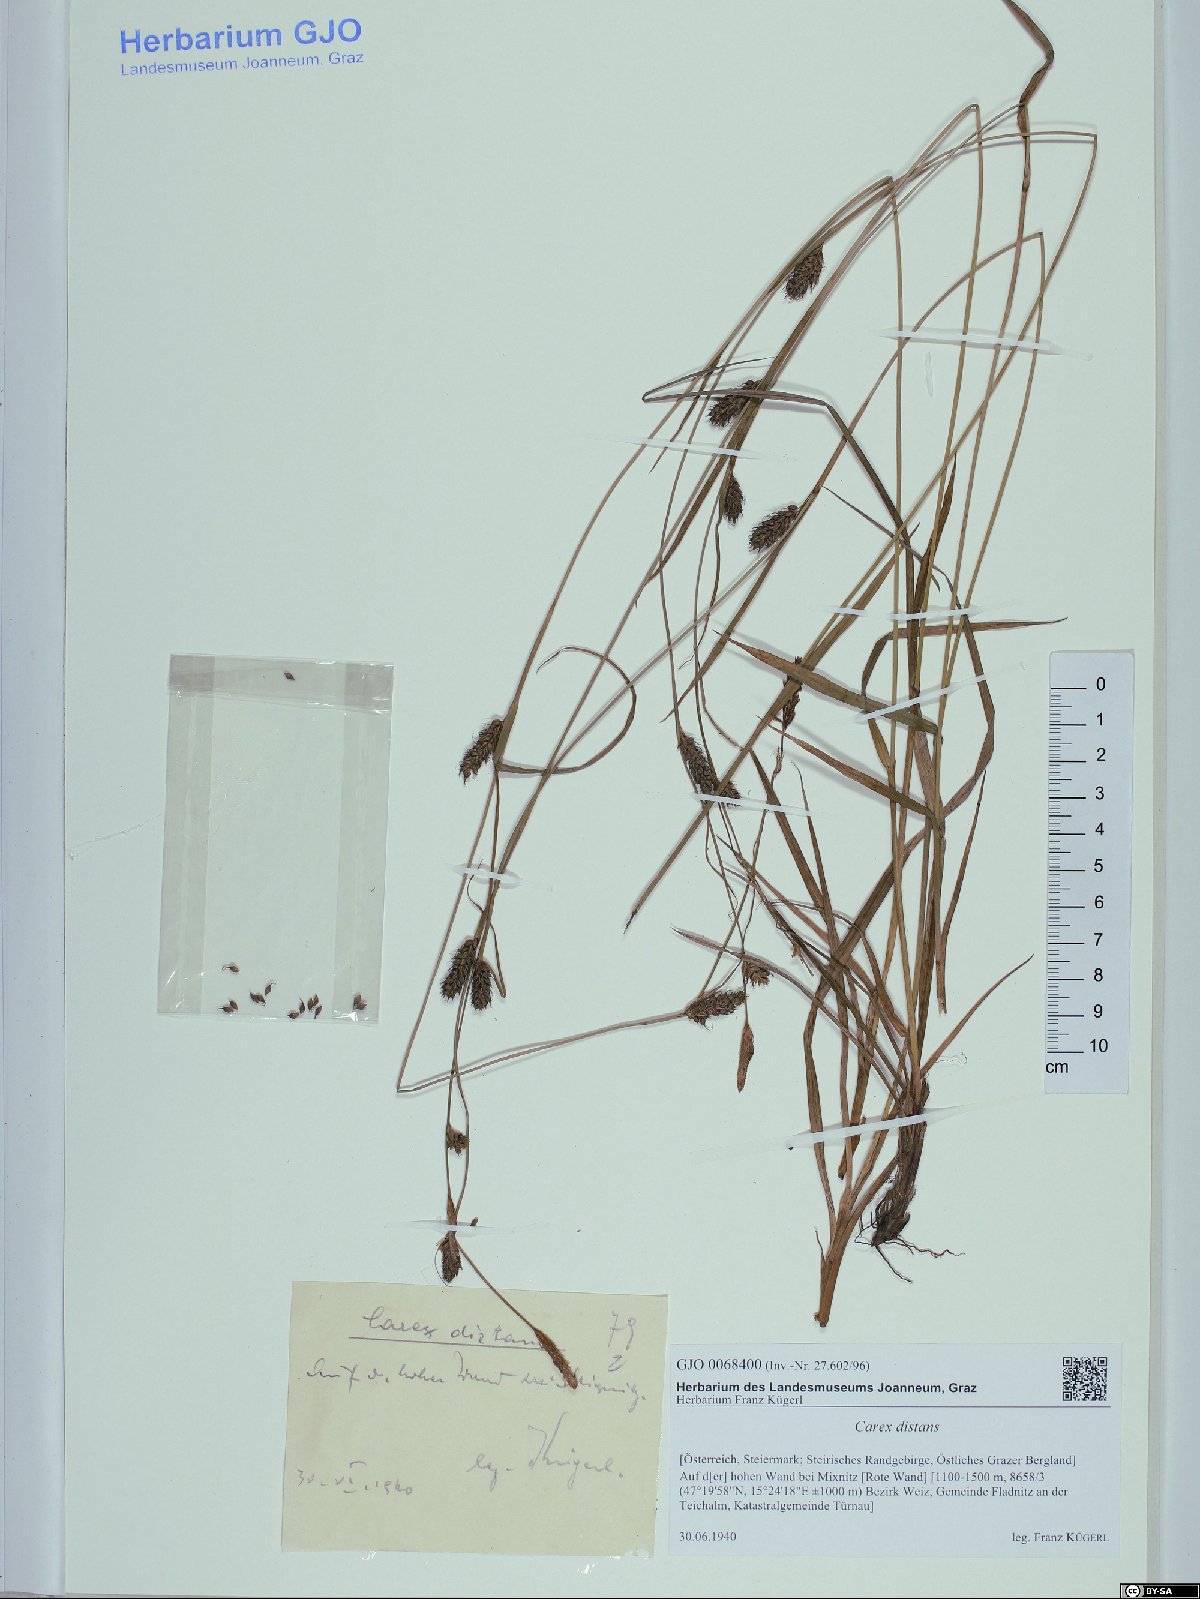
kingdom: Plantae
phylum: Tracheophyta
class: Liliopsida
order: Poales
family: Cyperaceae
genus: Carex
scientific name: Carex distans
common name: Distant sedge
